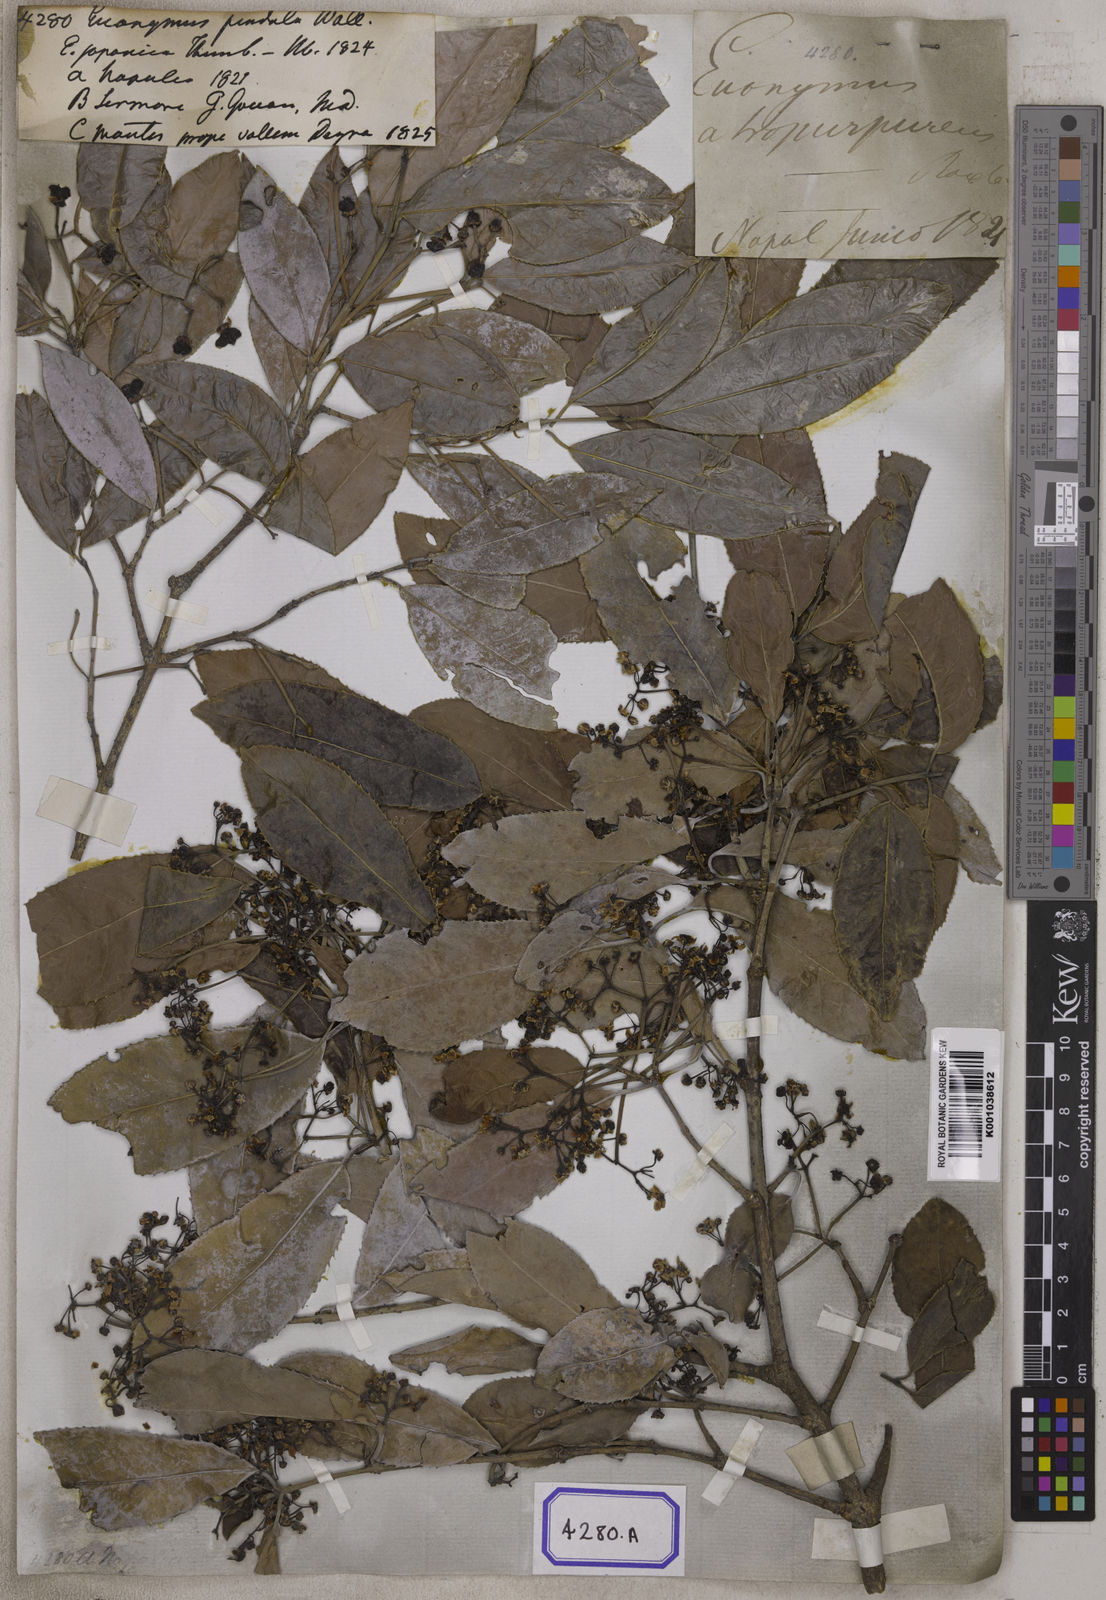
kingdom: Plantae
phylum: Tracheophyta
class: Magnoliopsida
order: Celastrales
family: Celastraceae
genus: Euonymus
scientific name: Euonymus lucidus
